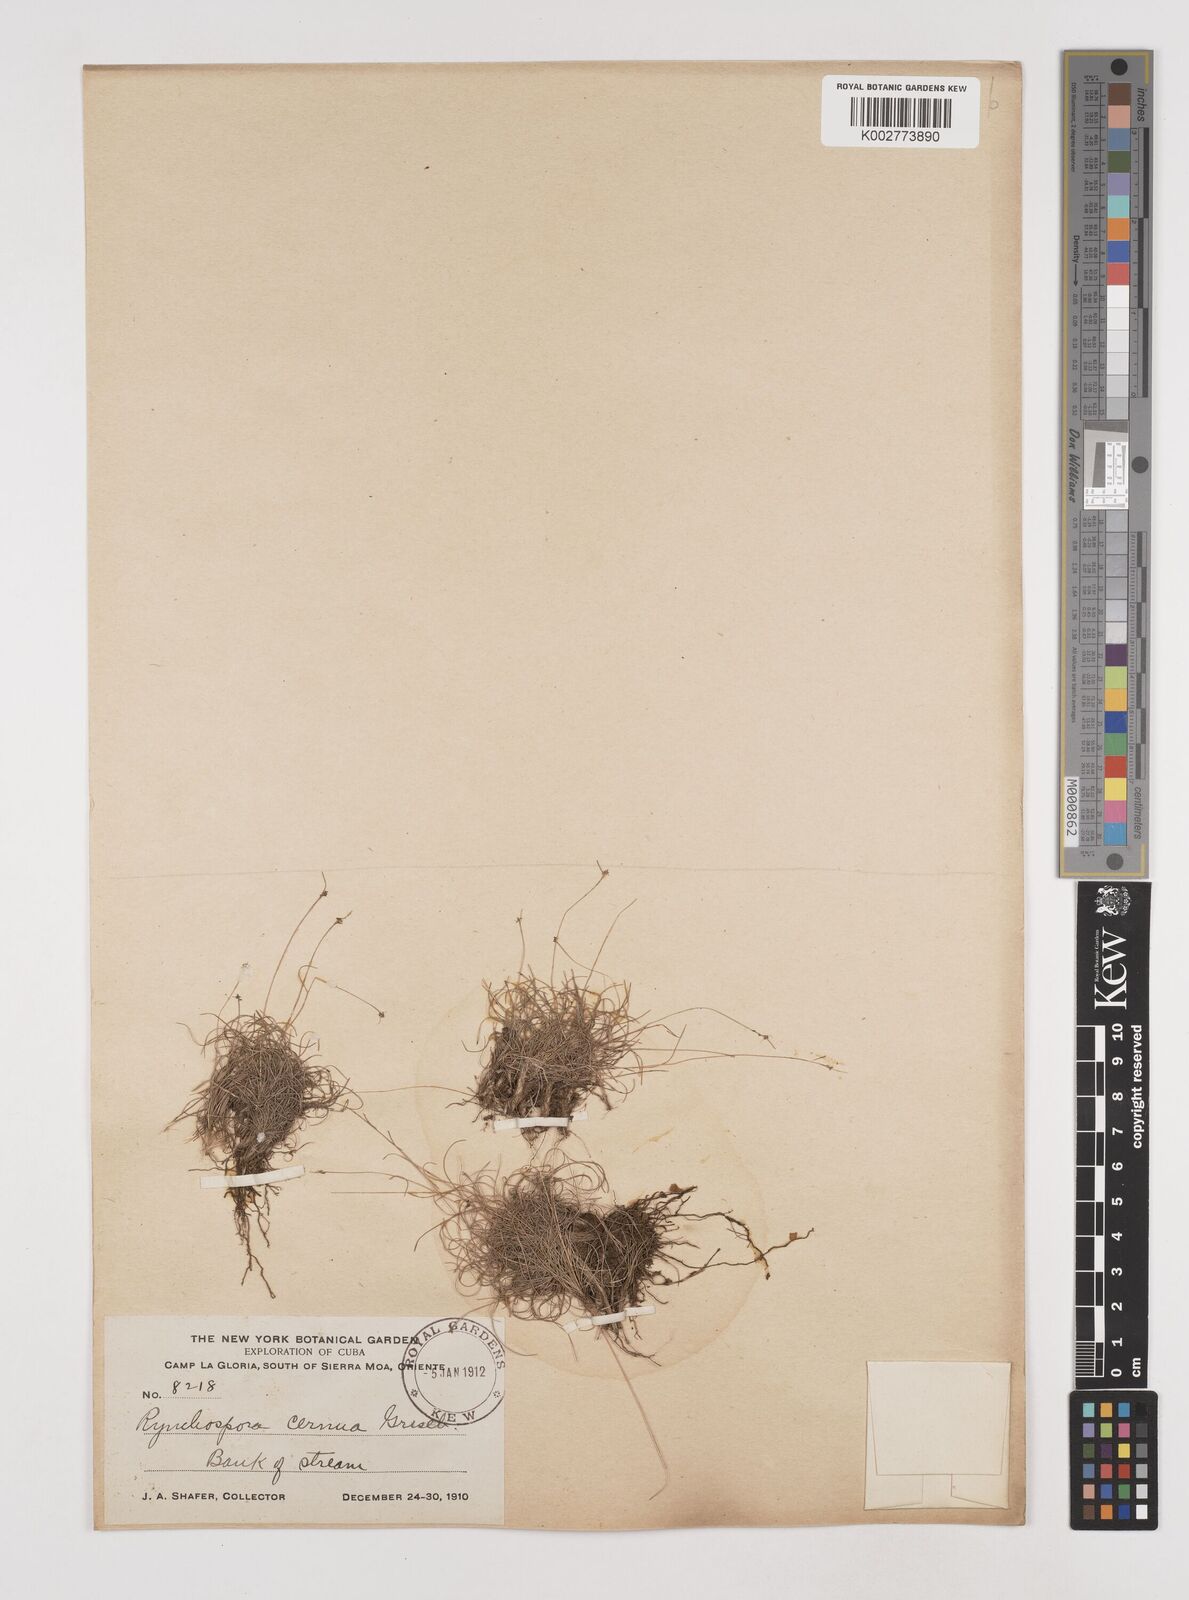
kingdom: Plantae
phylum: Tracheophyta
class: Liliopsida
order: Poales
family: Cyperaceae
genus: Rhynchospora
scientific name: Rhynchospora cernua
